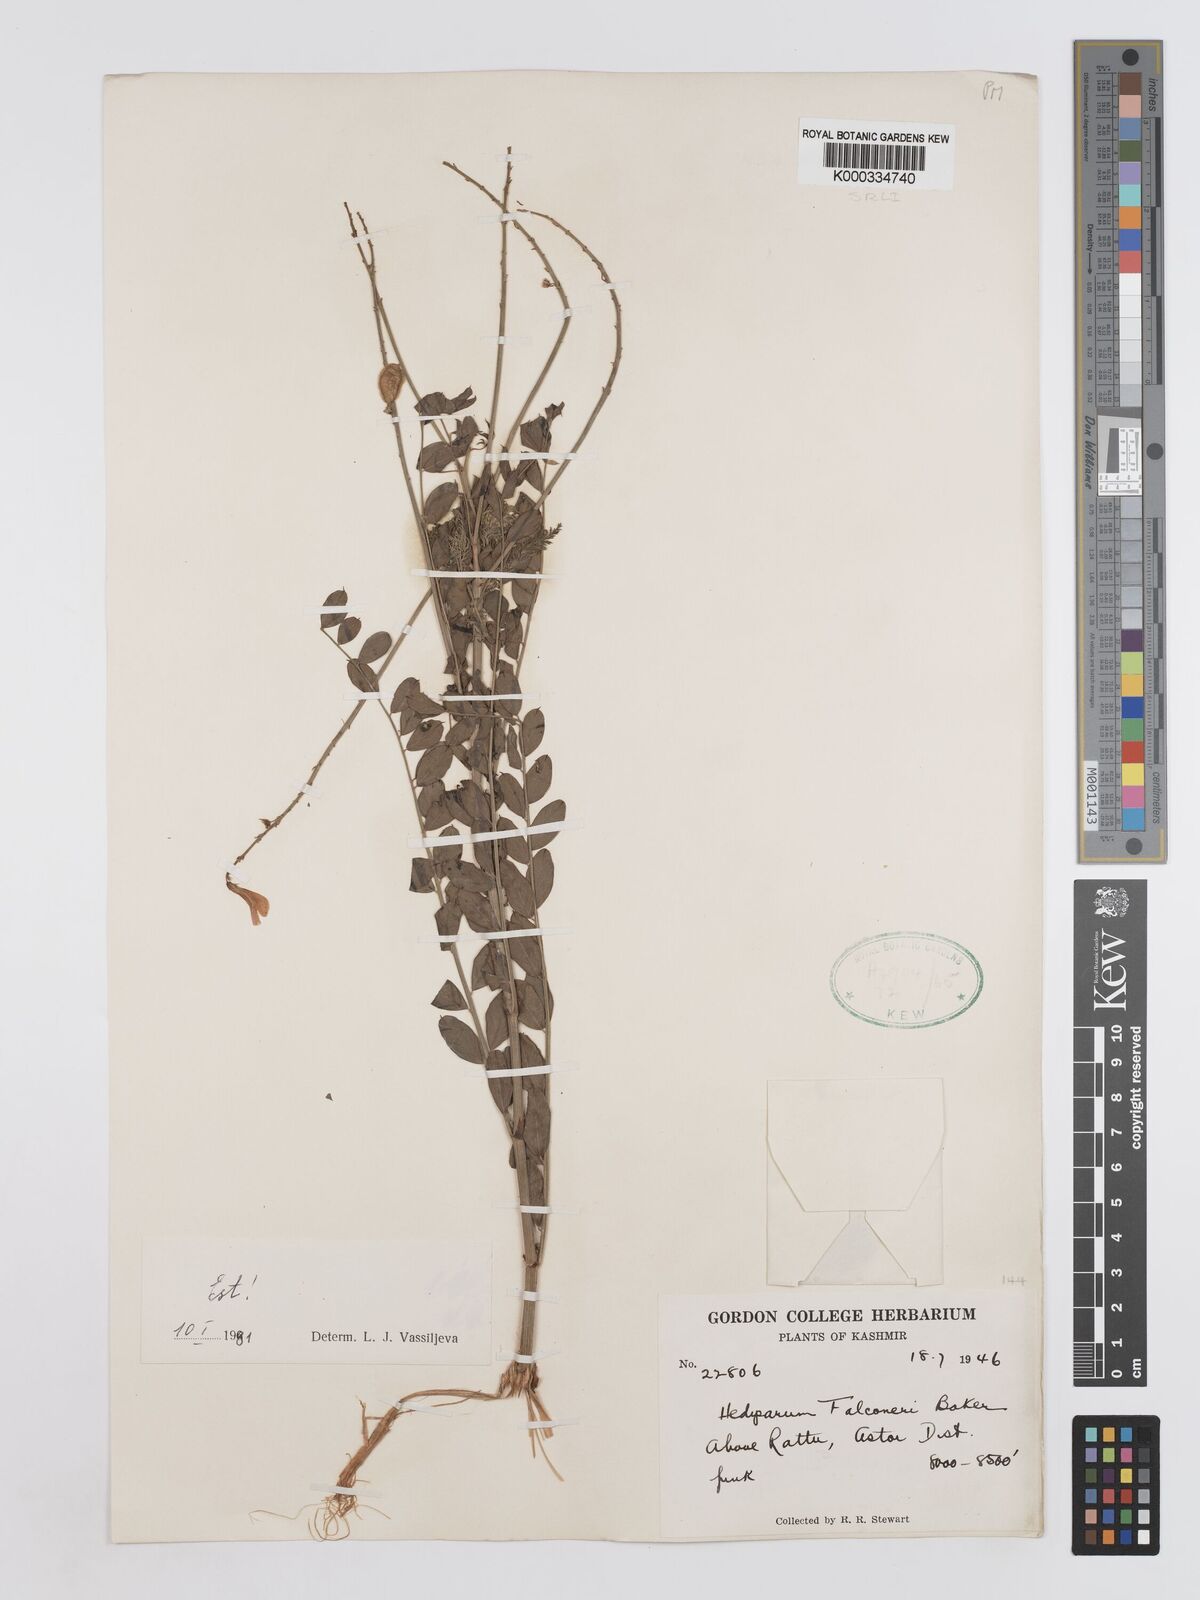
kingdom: Plantae
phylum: Tracheophyta
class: Magnoliopsida
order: Fabales
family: Fabaceae
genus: Hedysarum
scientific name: Hedysarum falconeri
